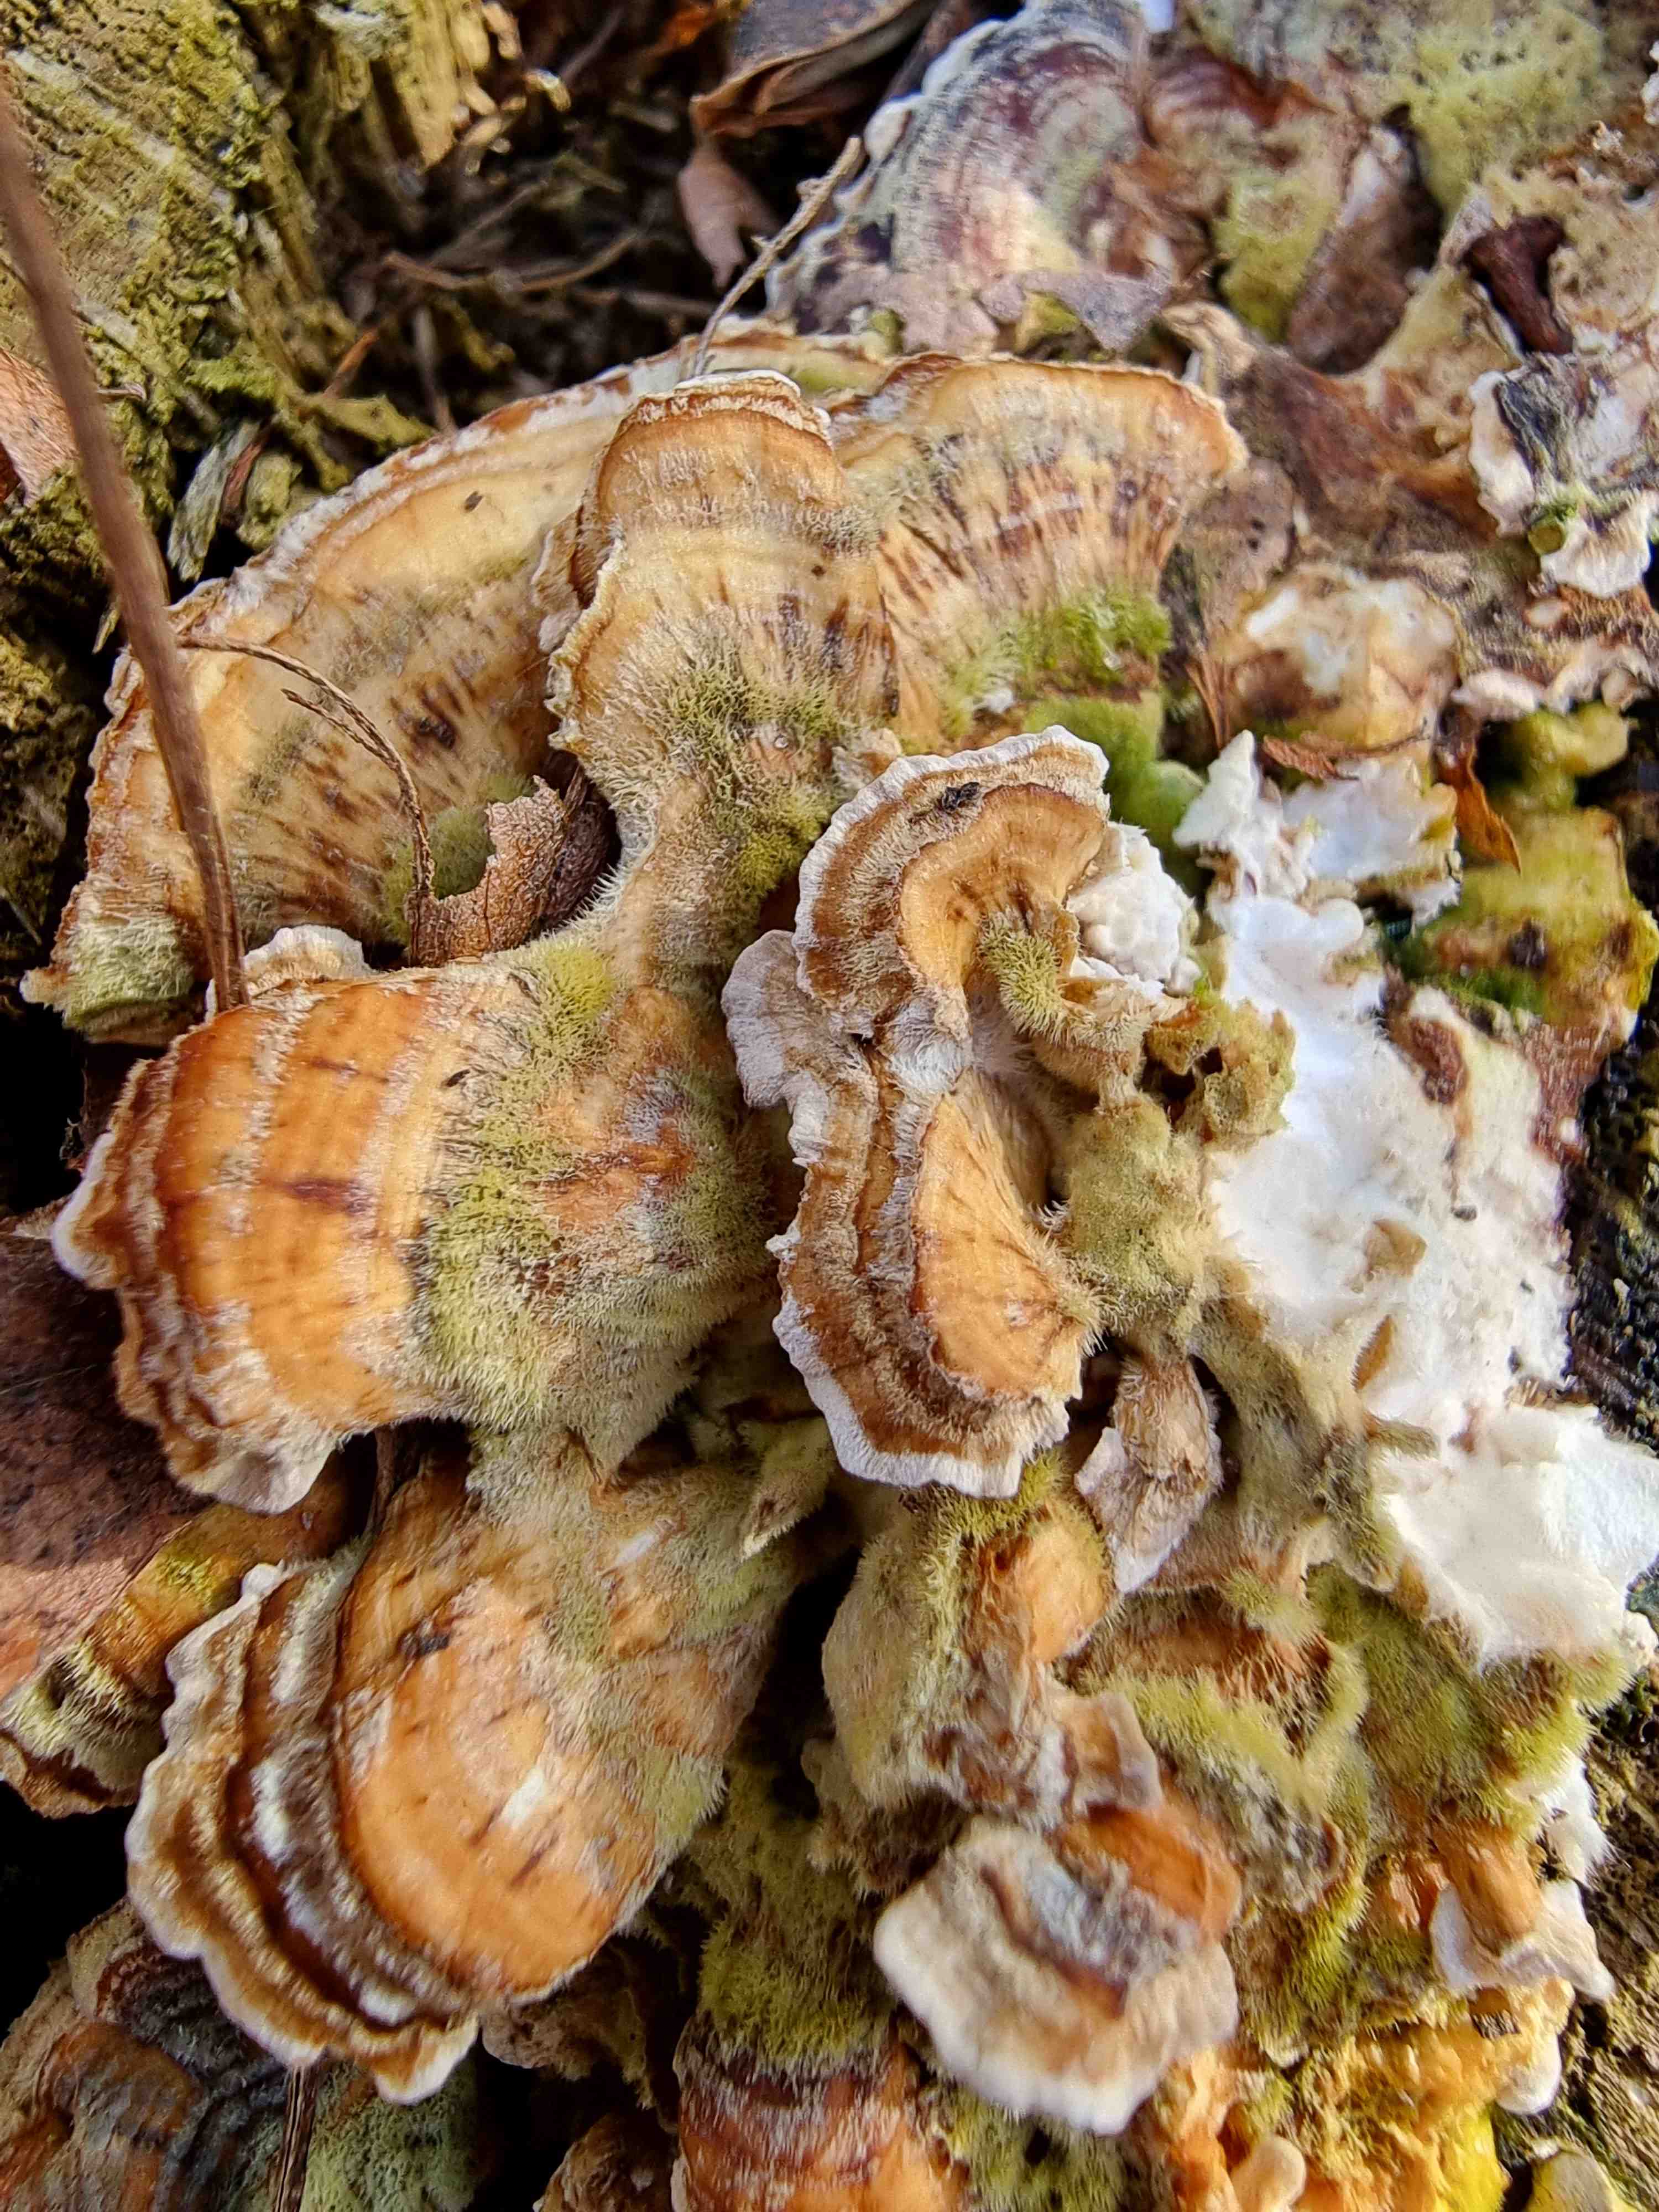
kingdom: Fungi
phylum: Basidiomycota
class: Agaricomycetes
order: Polyporales
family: Polyporaceae
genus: Trametes
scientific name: Trametes versicolor
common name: broget læderporesvamp
